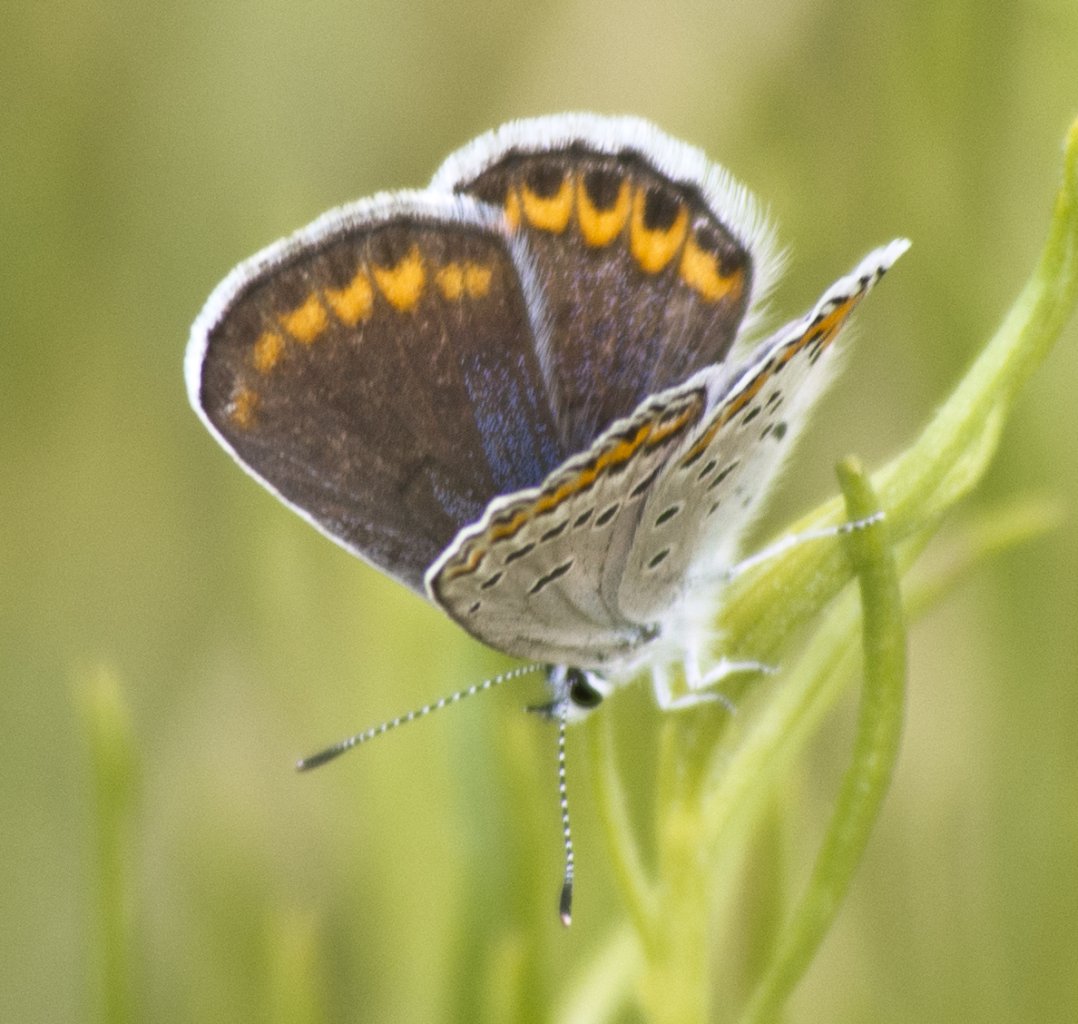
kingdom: Animalia
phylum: Arthropoda
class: Insecta
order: Lepidoptera
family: Lycaenidae
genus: Lycaeides
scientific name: Lycaeides melissa
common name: Melissa Blue
